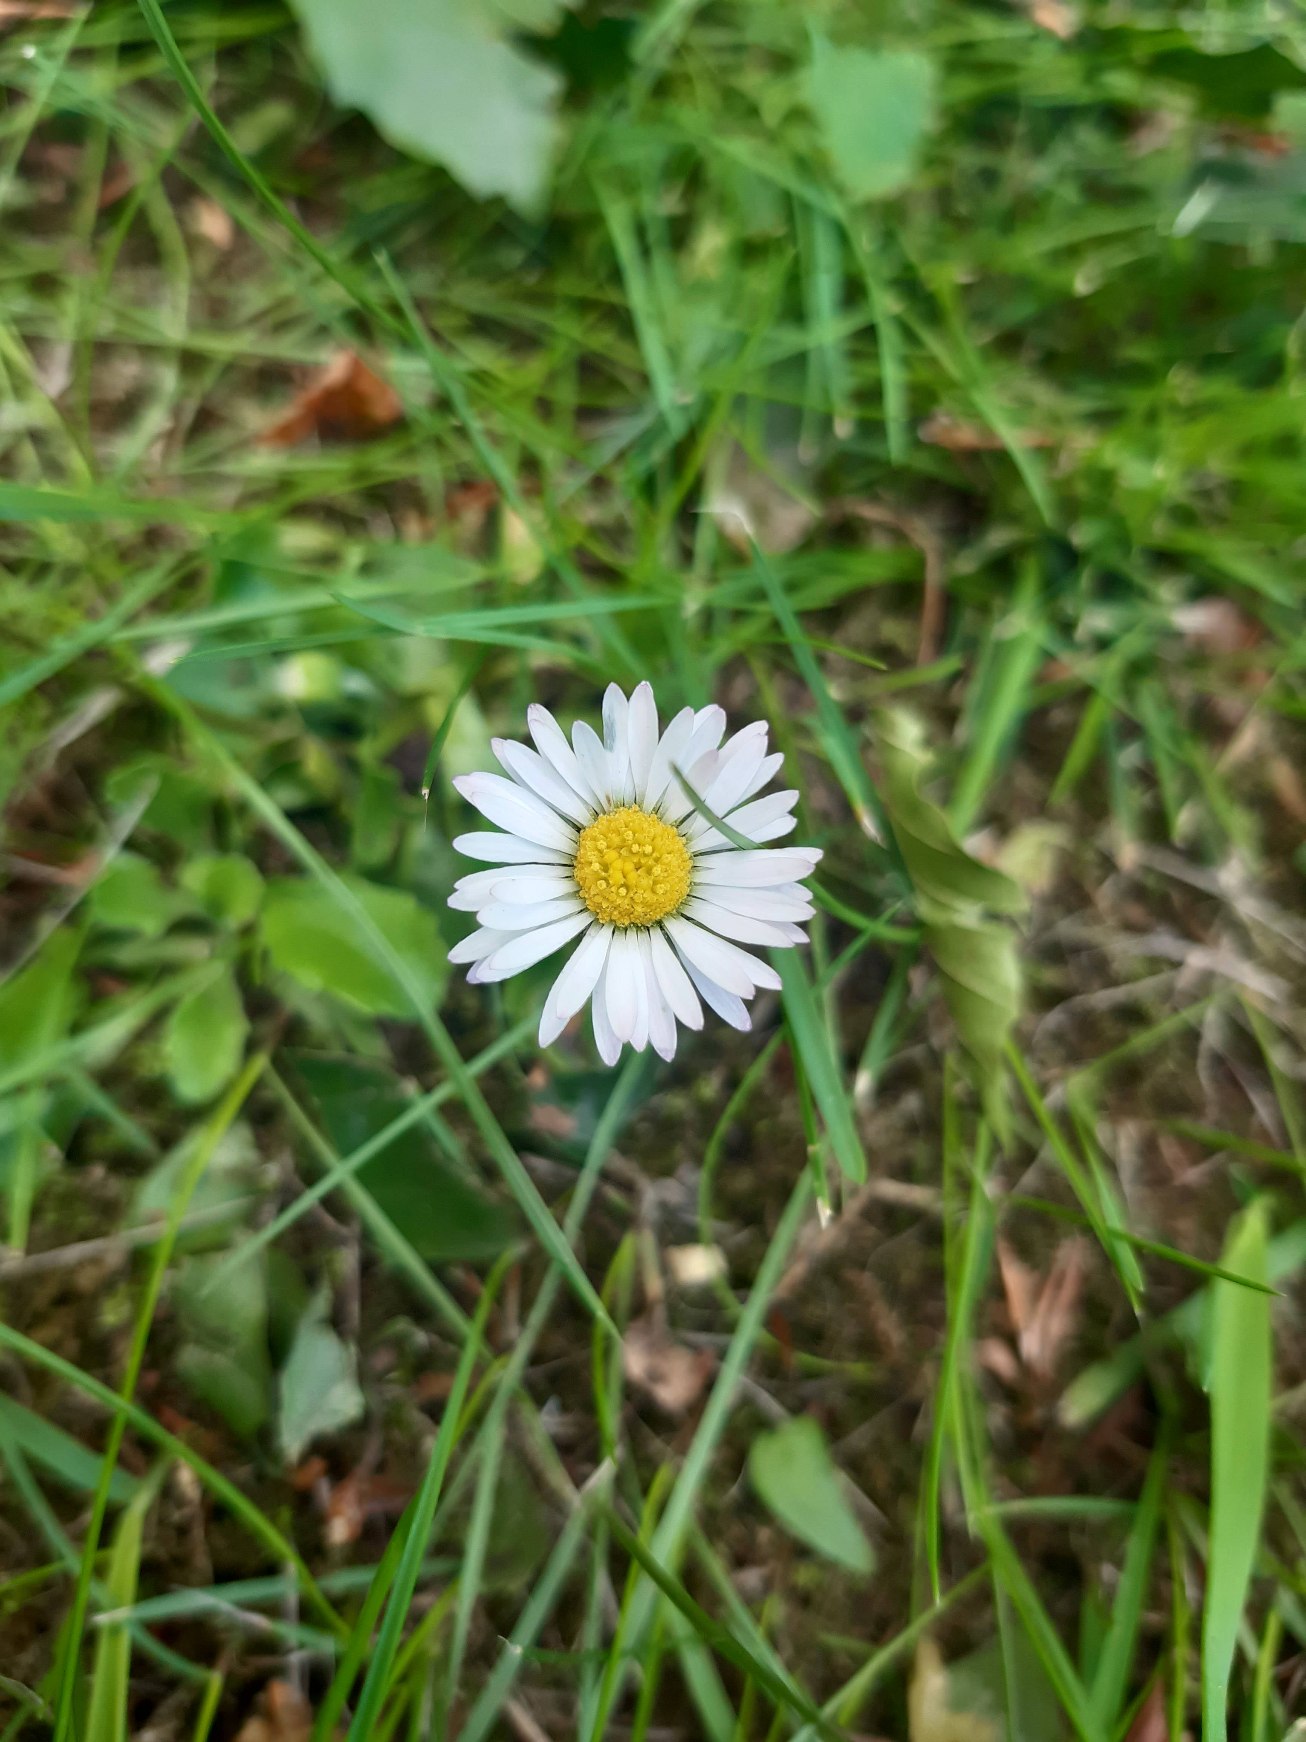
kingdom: Plantae
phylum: Tracheophyta
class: Magnoliopsida
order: Asterales
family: Asteraceae
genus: Bellis
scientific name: Bellis perennis
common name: Tusindfryd
